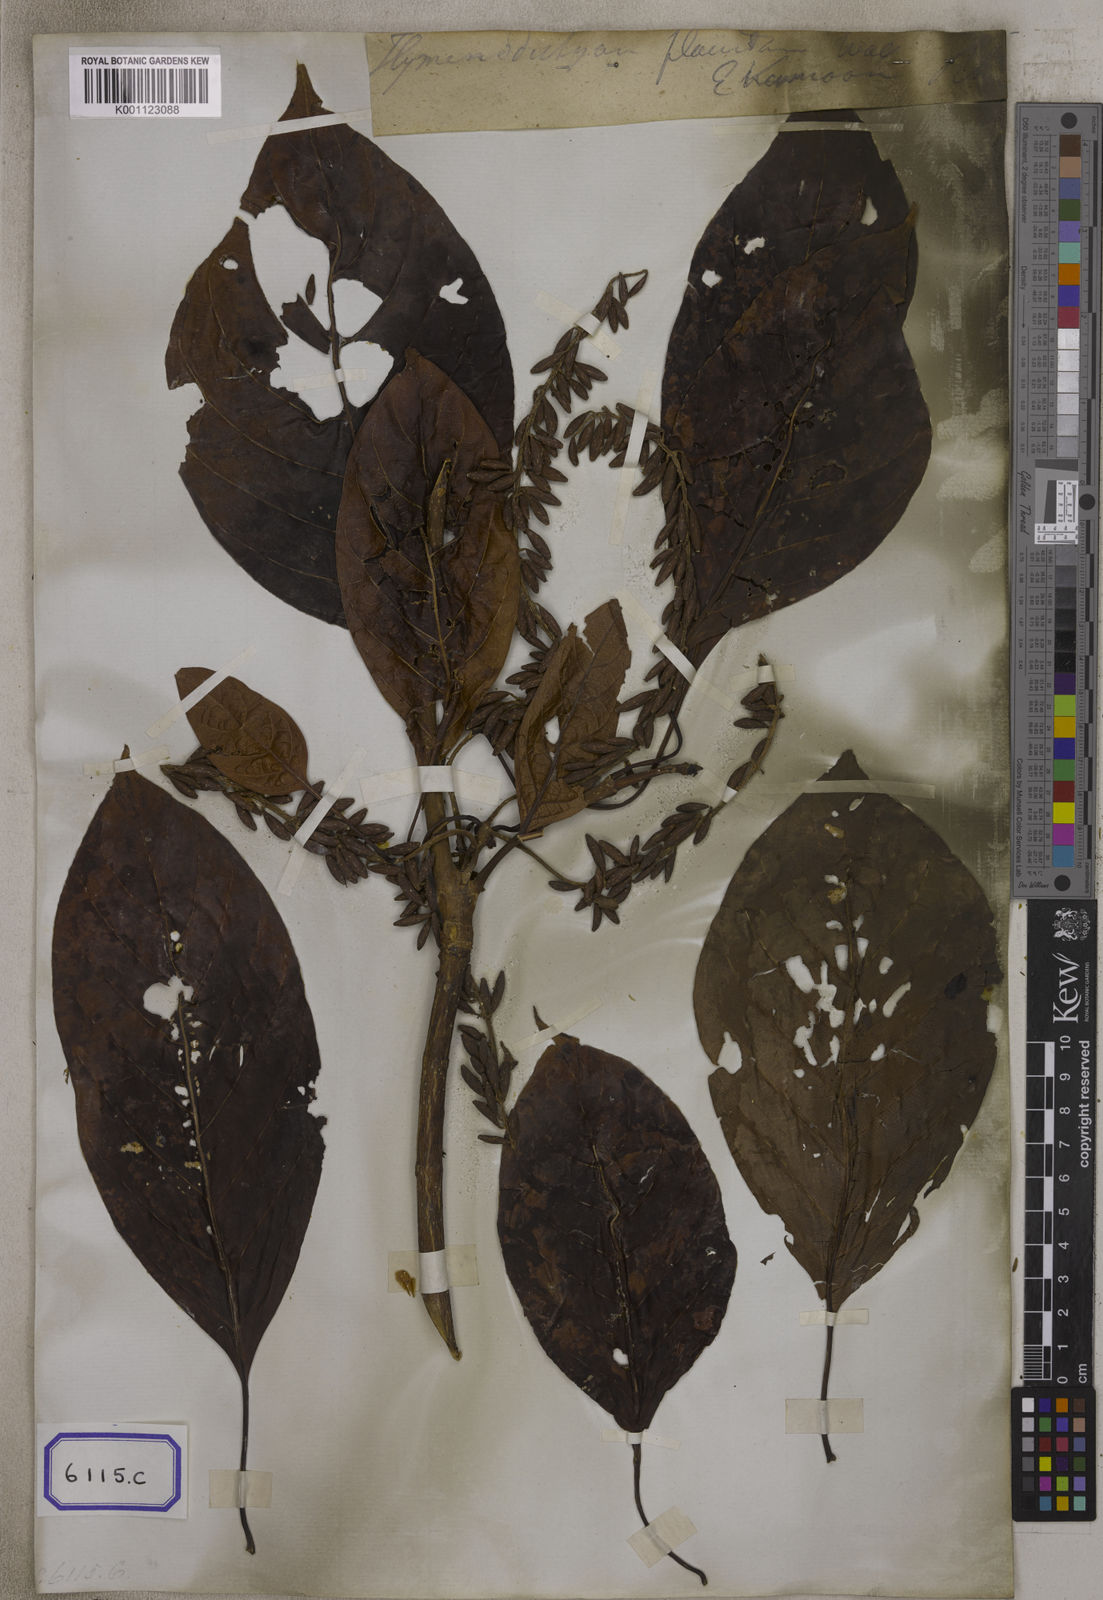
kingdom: Plantae
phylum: Tracheophyta
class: Magnoliopsida
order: Gentianales
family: Rubiaceae
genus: Hymenodictyon
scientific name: Hymenodictyon flaccidum
